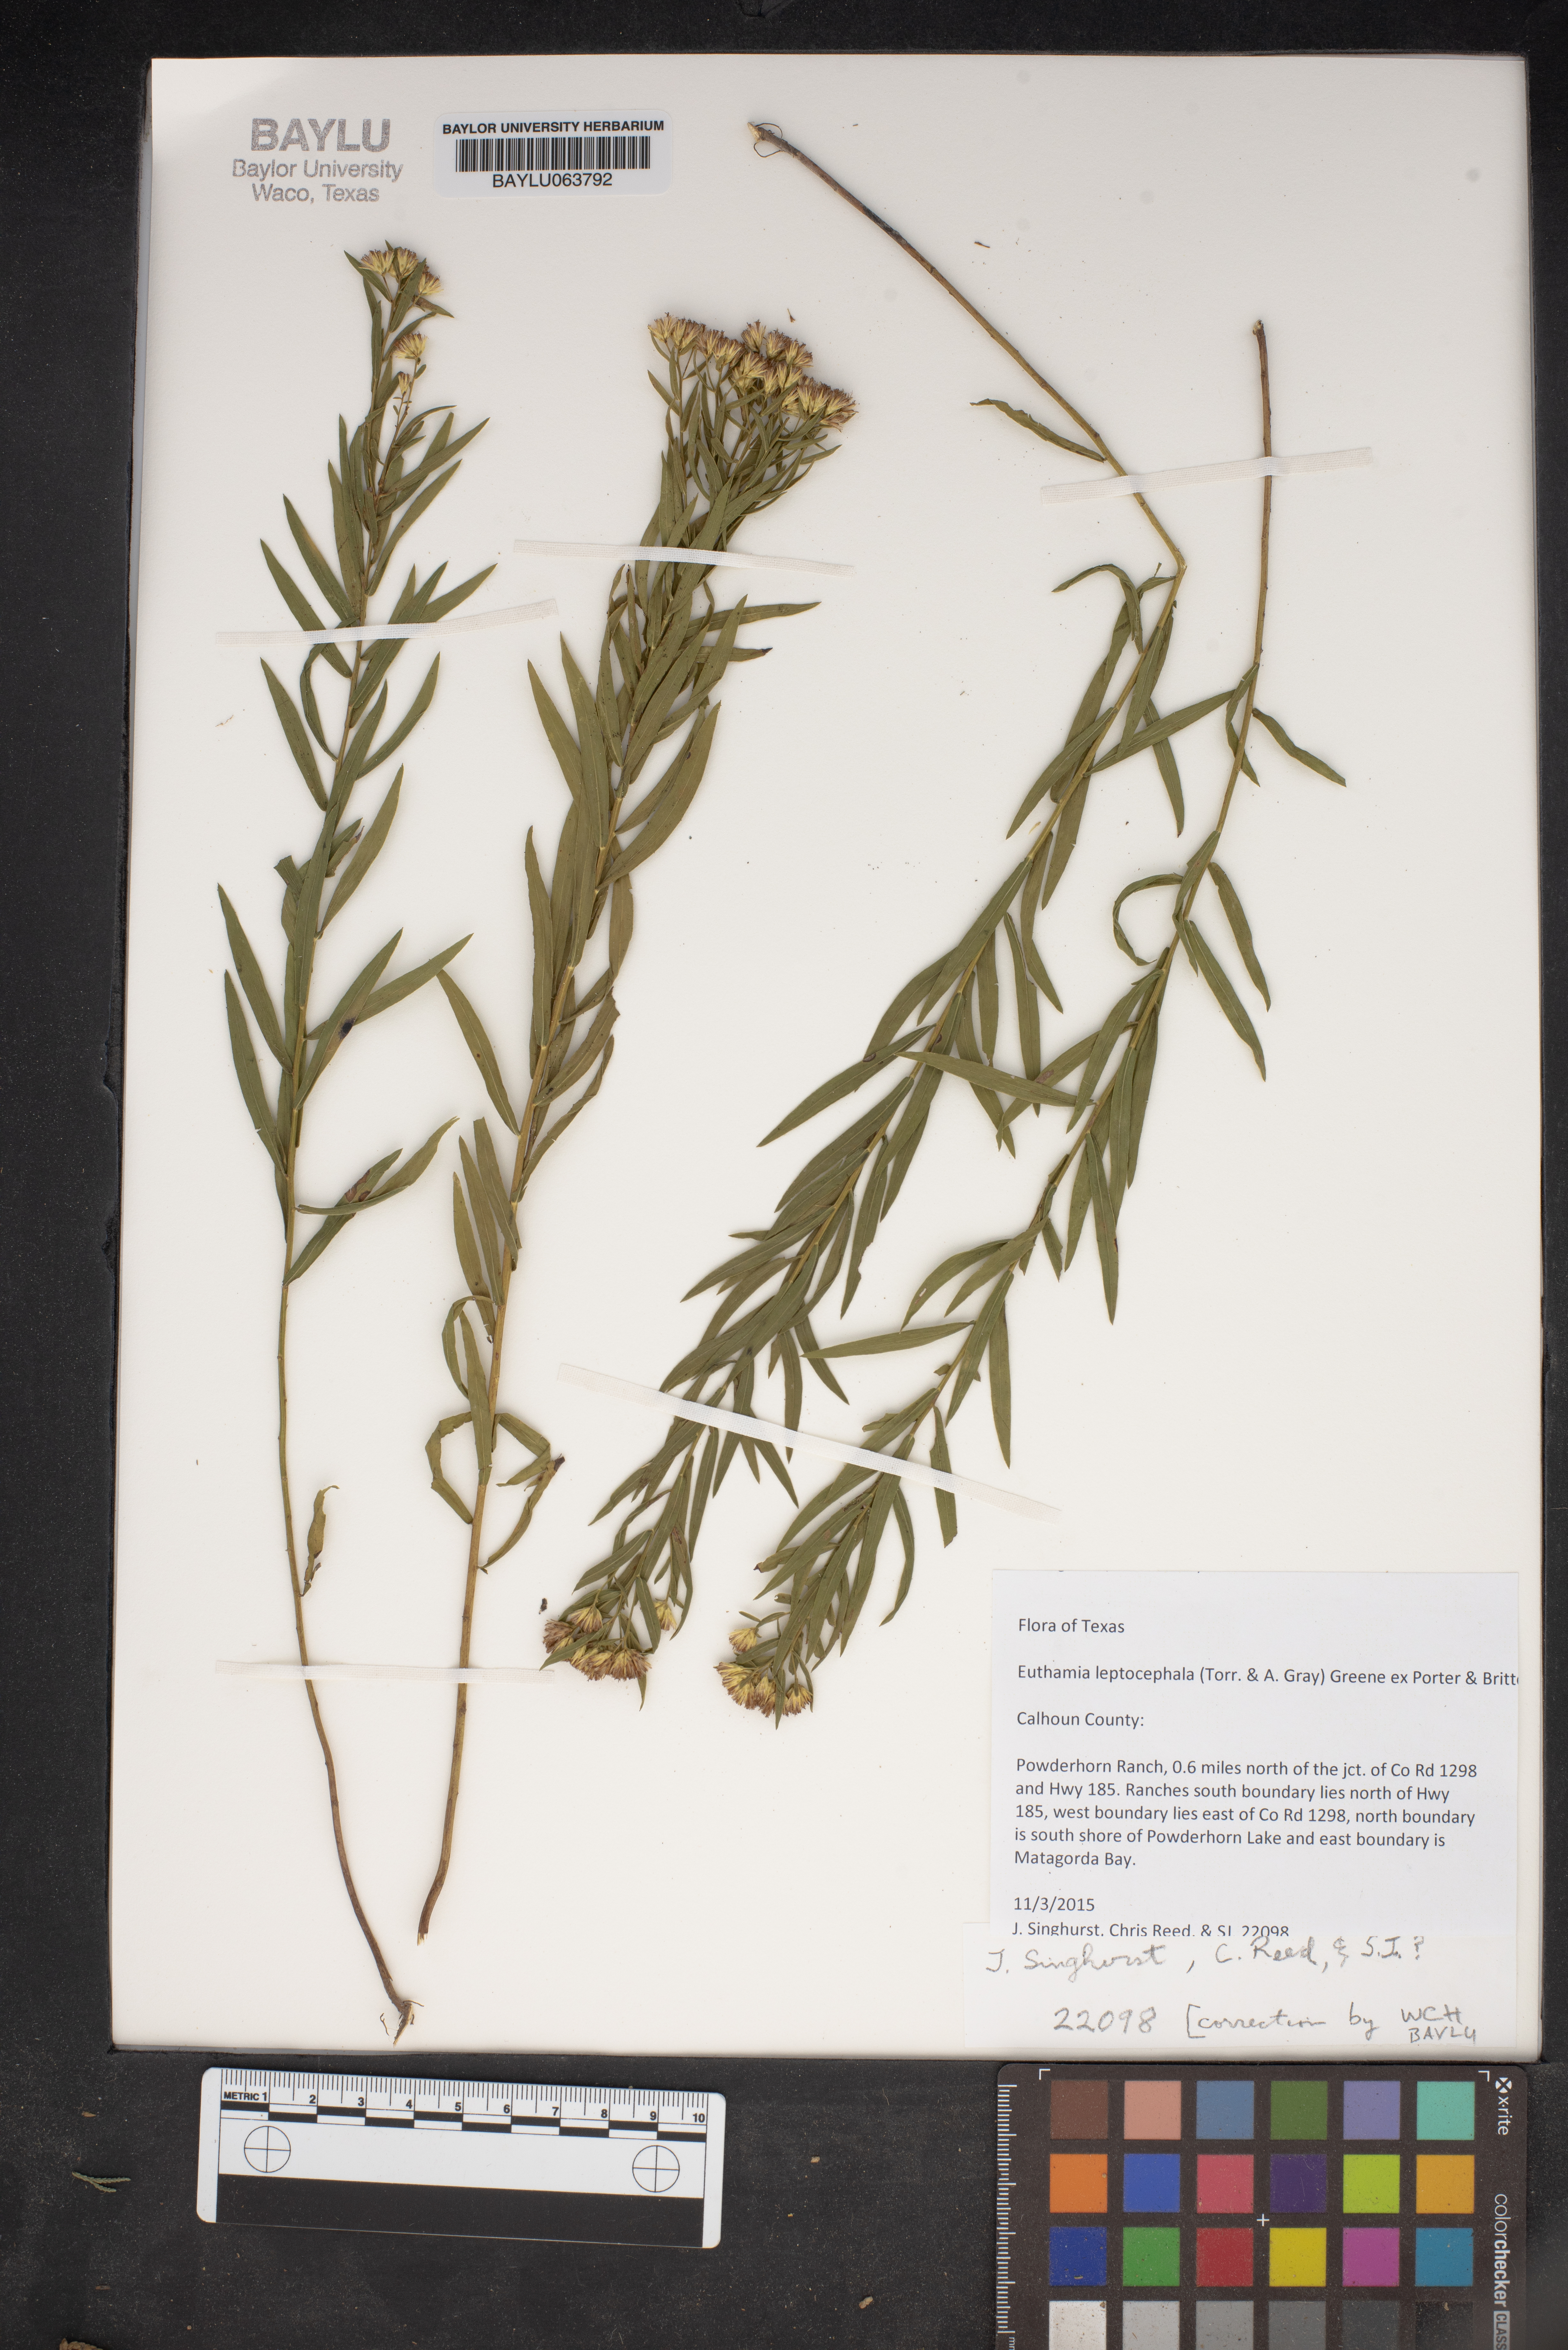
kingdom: Plantae
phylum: Tracheophyta
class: Magnoliopsida
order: Asterales
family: Asteraceae
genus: Euthamia
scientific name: Euthamia leptocephala
